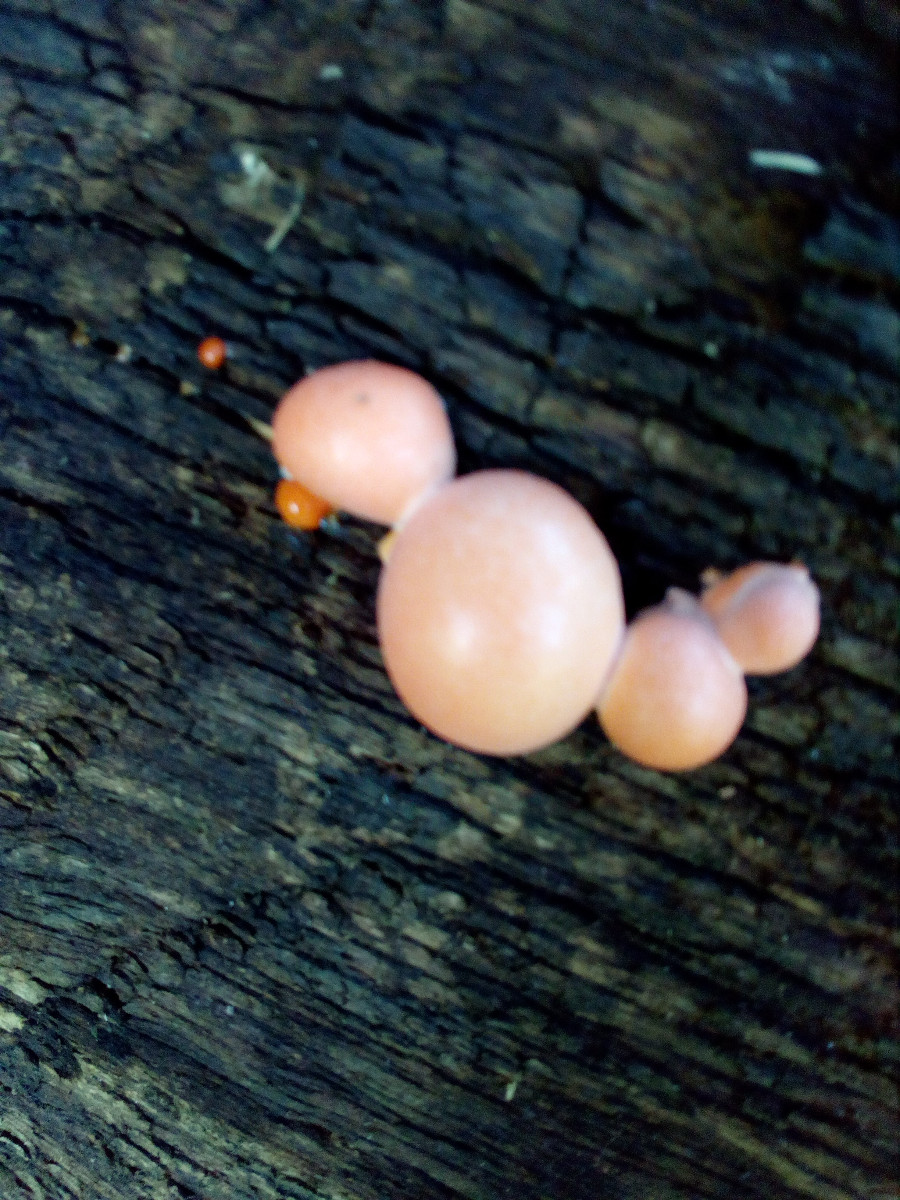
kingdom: Protozoa
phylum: Mycetozoa
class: Myxomycetes
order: Cribrariales
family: Tubiferaceae
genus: Lycogala
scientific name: Lycogala epidendrum
